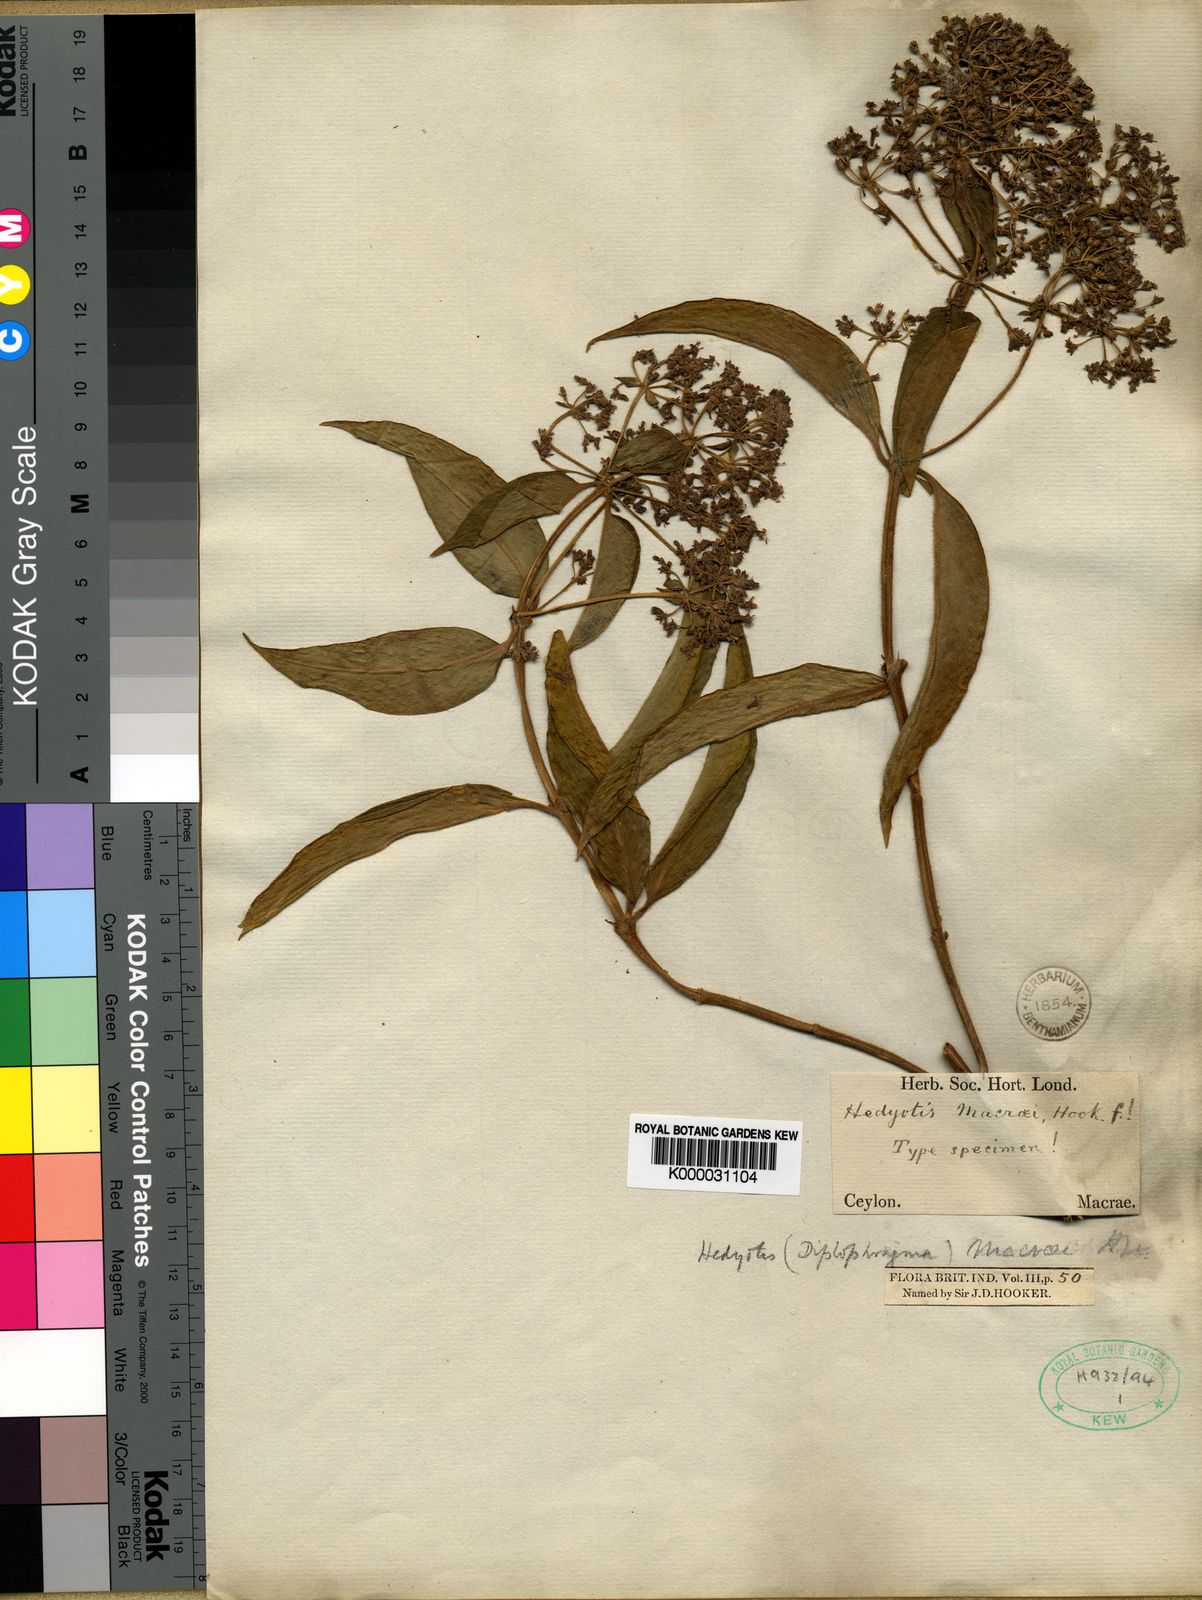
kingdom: Plantae
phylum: Tracheophyta
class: Magnoliopsida
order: Gentianales
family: Rubiaceae
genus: Hedyotis
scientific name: Hedyotis macraei
